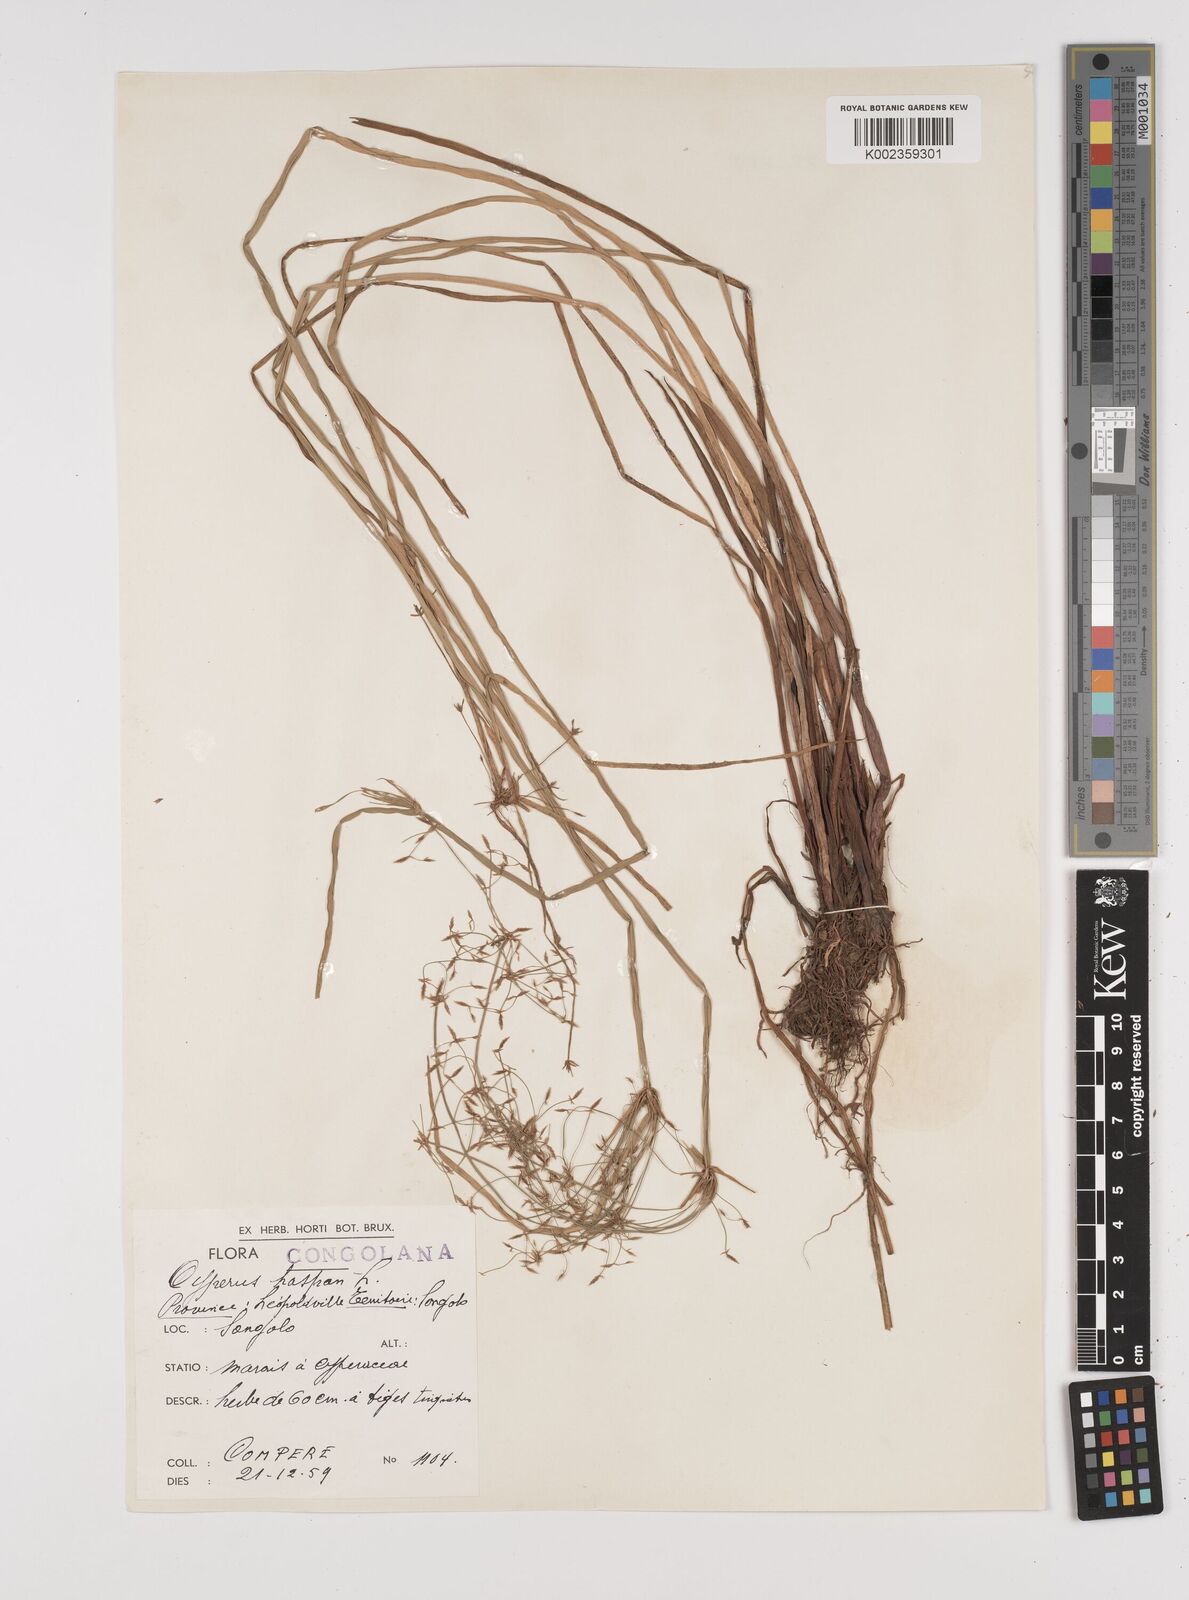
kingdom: Plantae
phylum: Tracheophyta
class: Liliopsida
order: Poales
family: Cyperaceae
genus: Cyperus
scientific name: Cyperus haspan
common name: Haspan flatsedge
